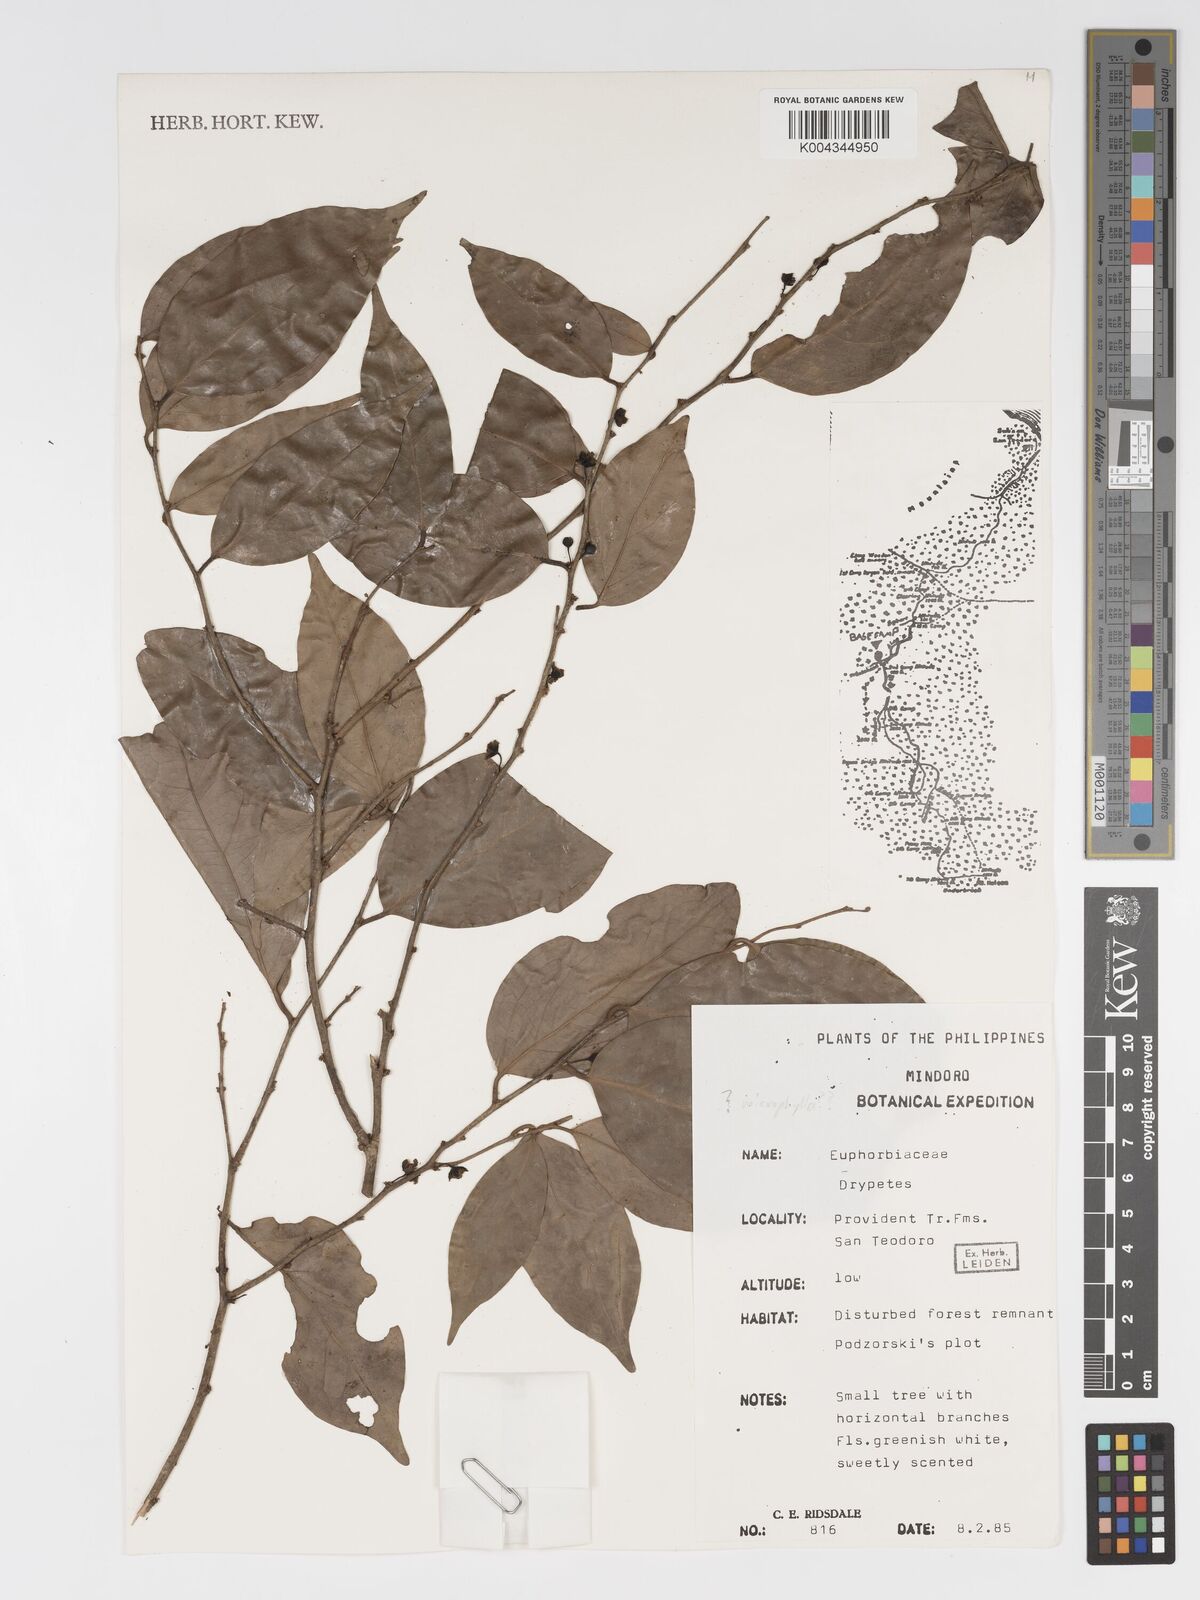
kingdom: Plantae
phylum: Tracheophyta
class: Magnoliopsida
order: Malpighiales
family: Putranjivaceae
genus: Drypetes
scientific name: Drypetes microphylla
